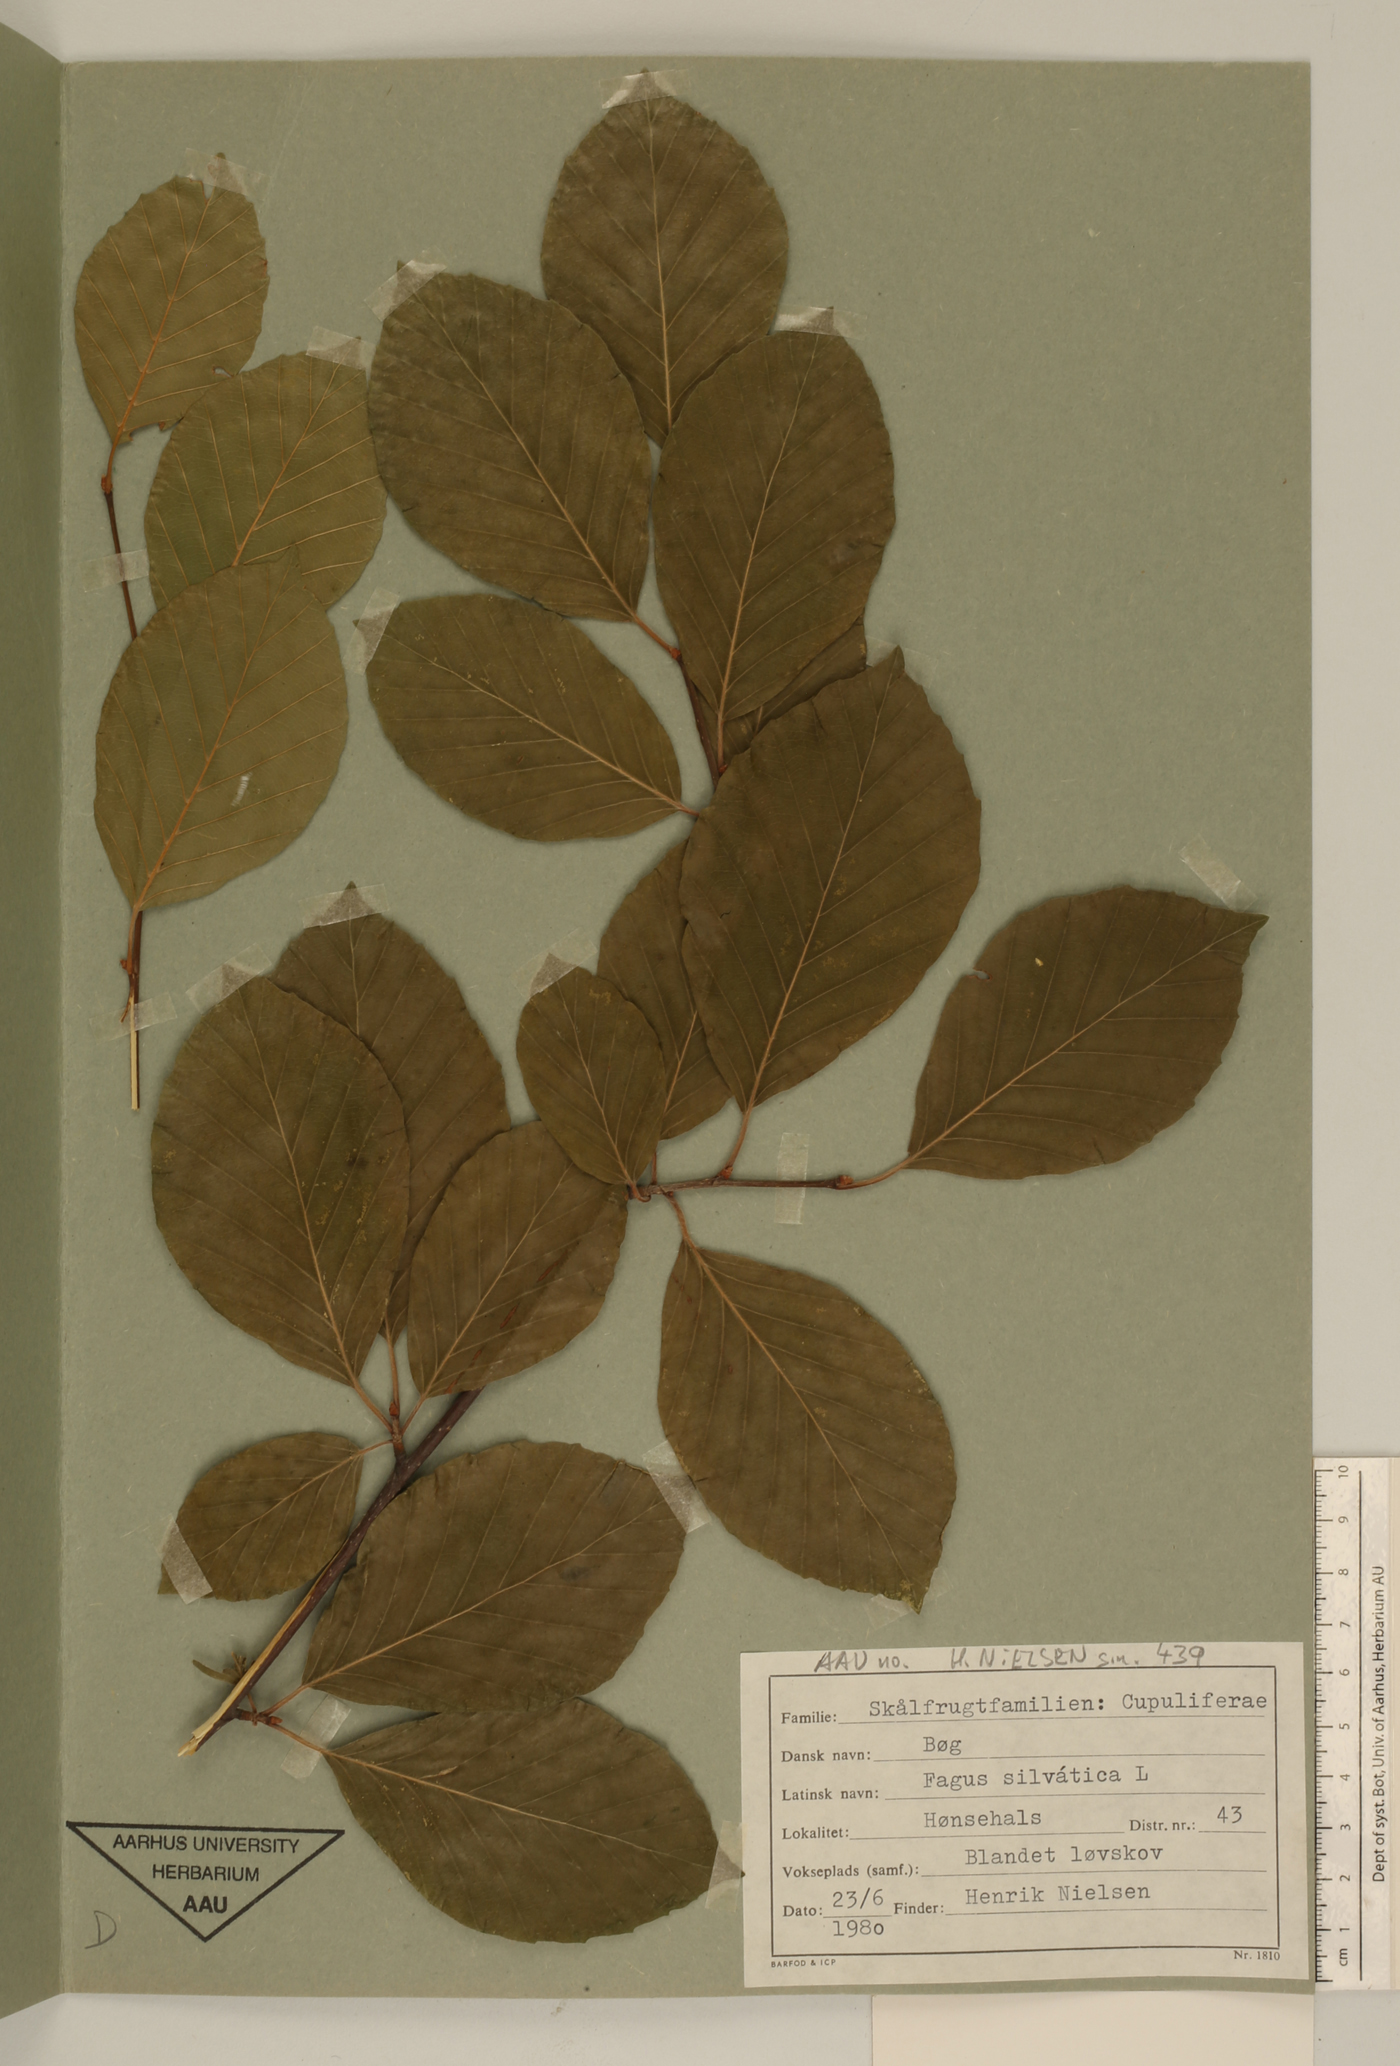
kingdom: Plantae
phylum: Tracheophyta
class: Magnoliopsida
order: Fagales
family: Fagaceae
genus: Fagus
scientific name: Fagus sylvatica
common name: Beech
